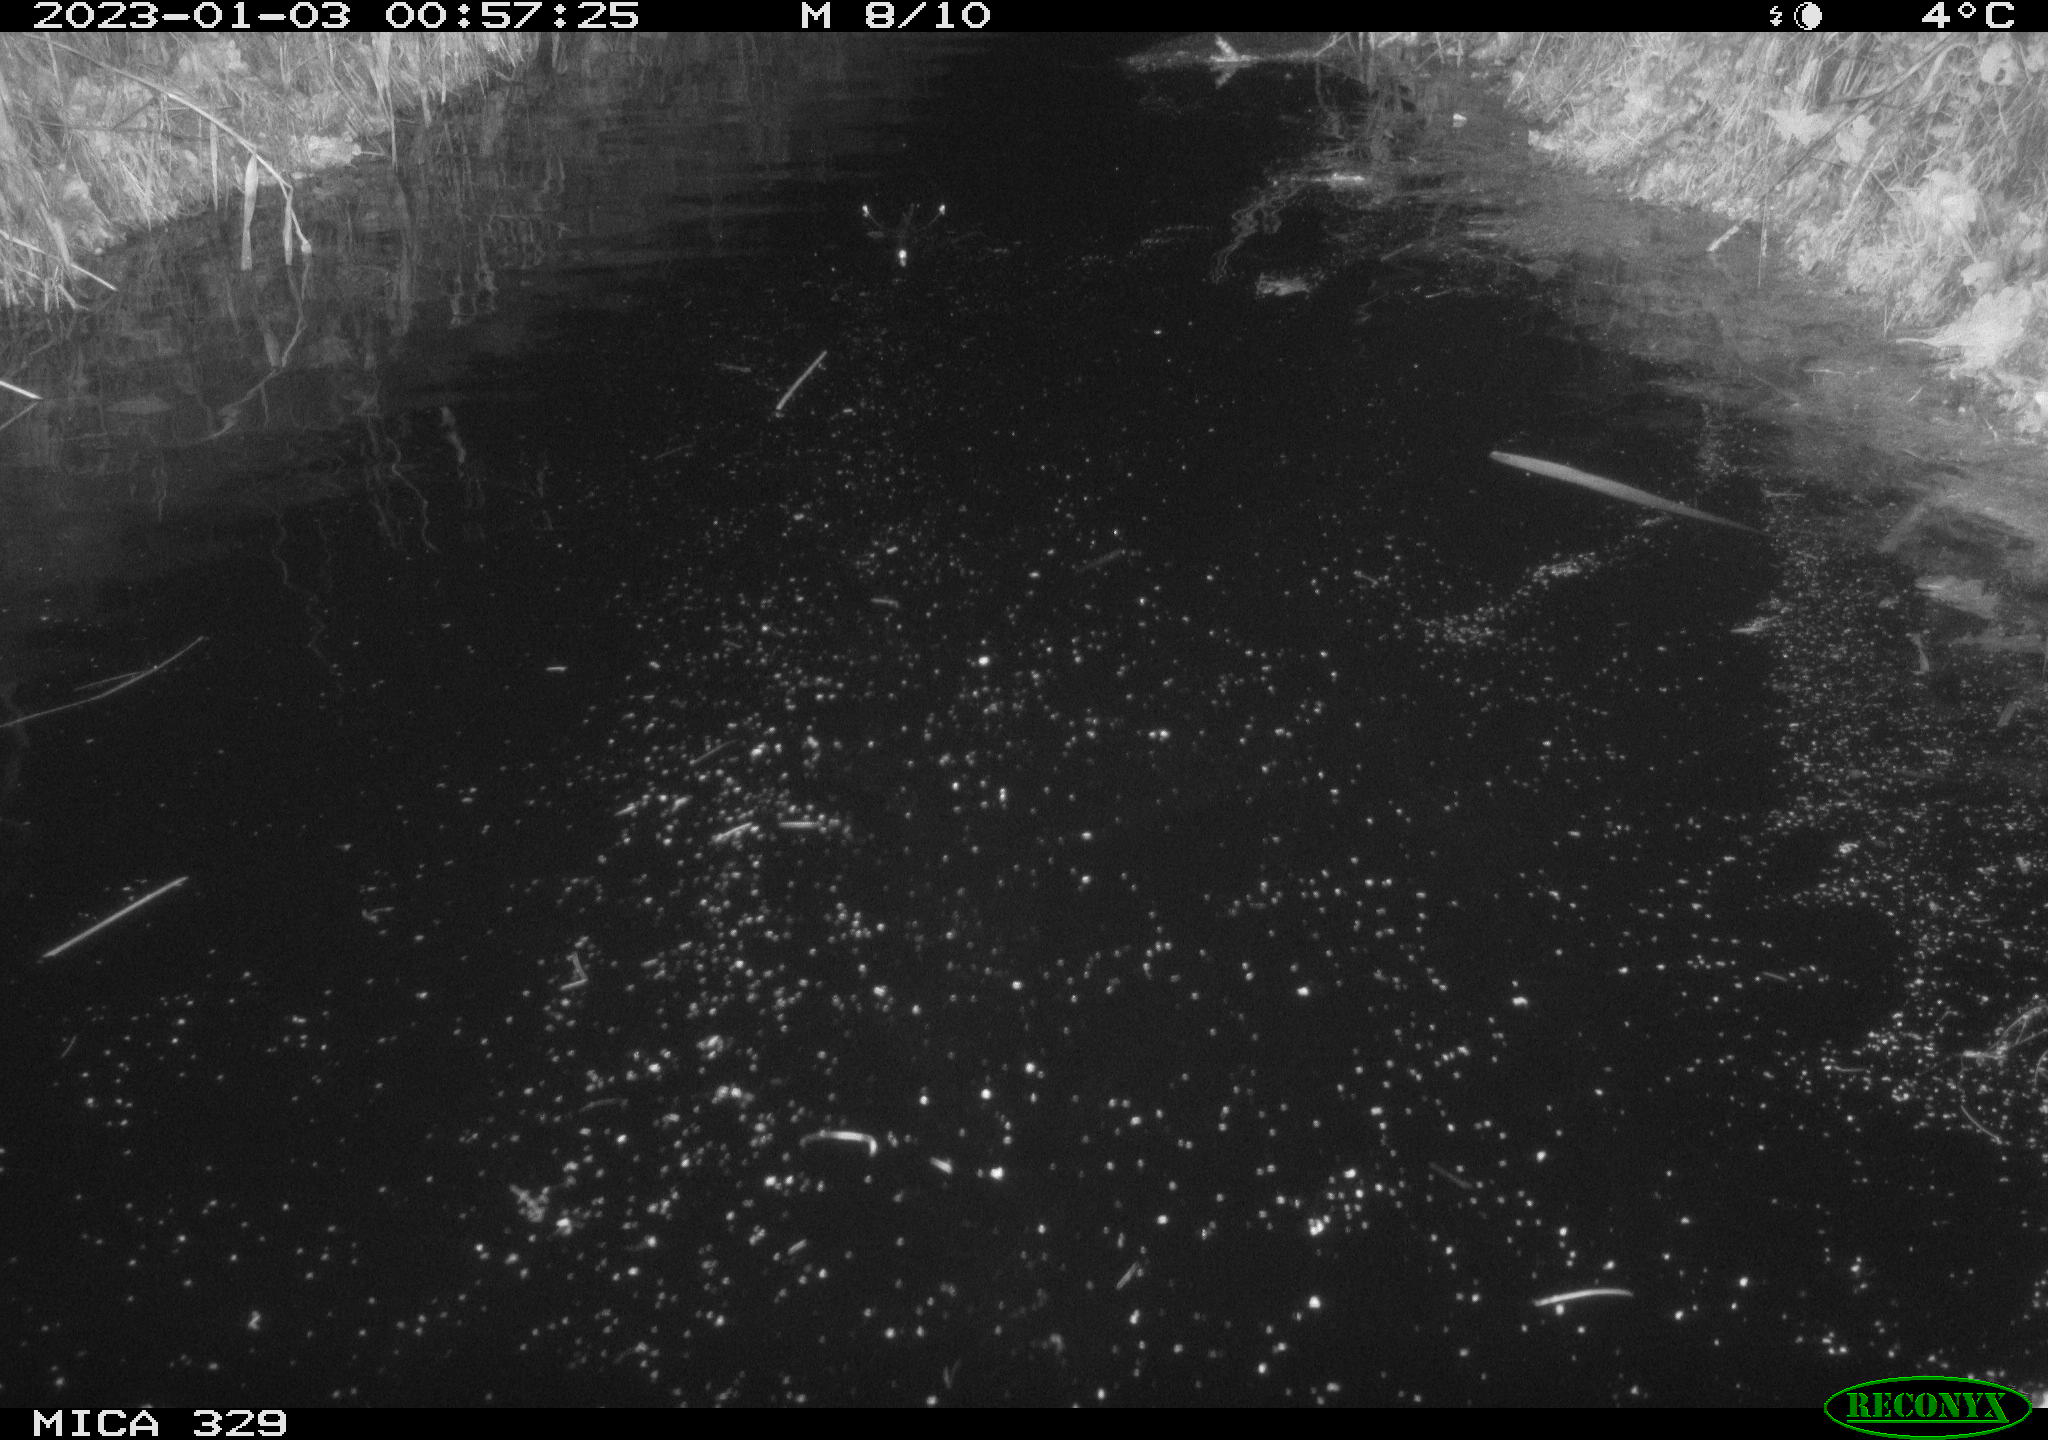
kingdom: Animalia
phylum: Chordata
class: Mammalia
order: Rodentia
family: Cricetidae
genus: Ondatra
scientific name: Ondatra zibethicus
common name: Muskrat
